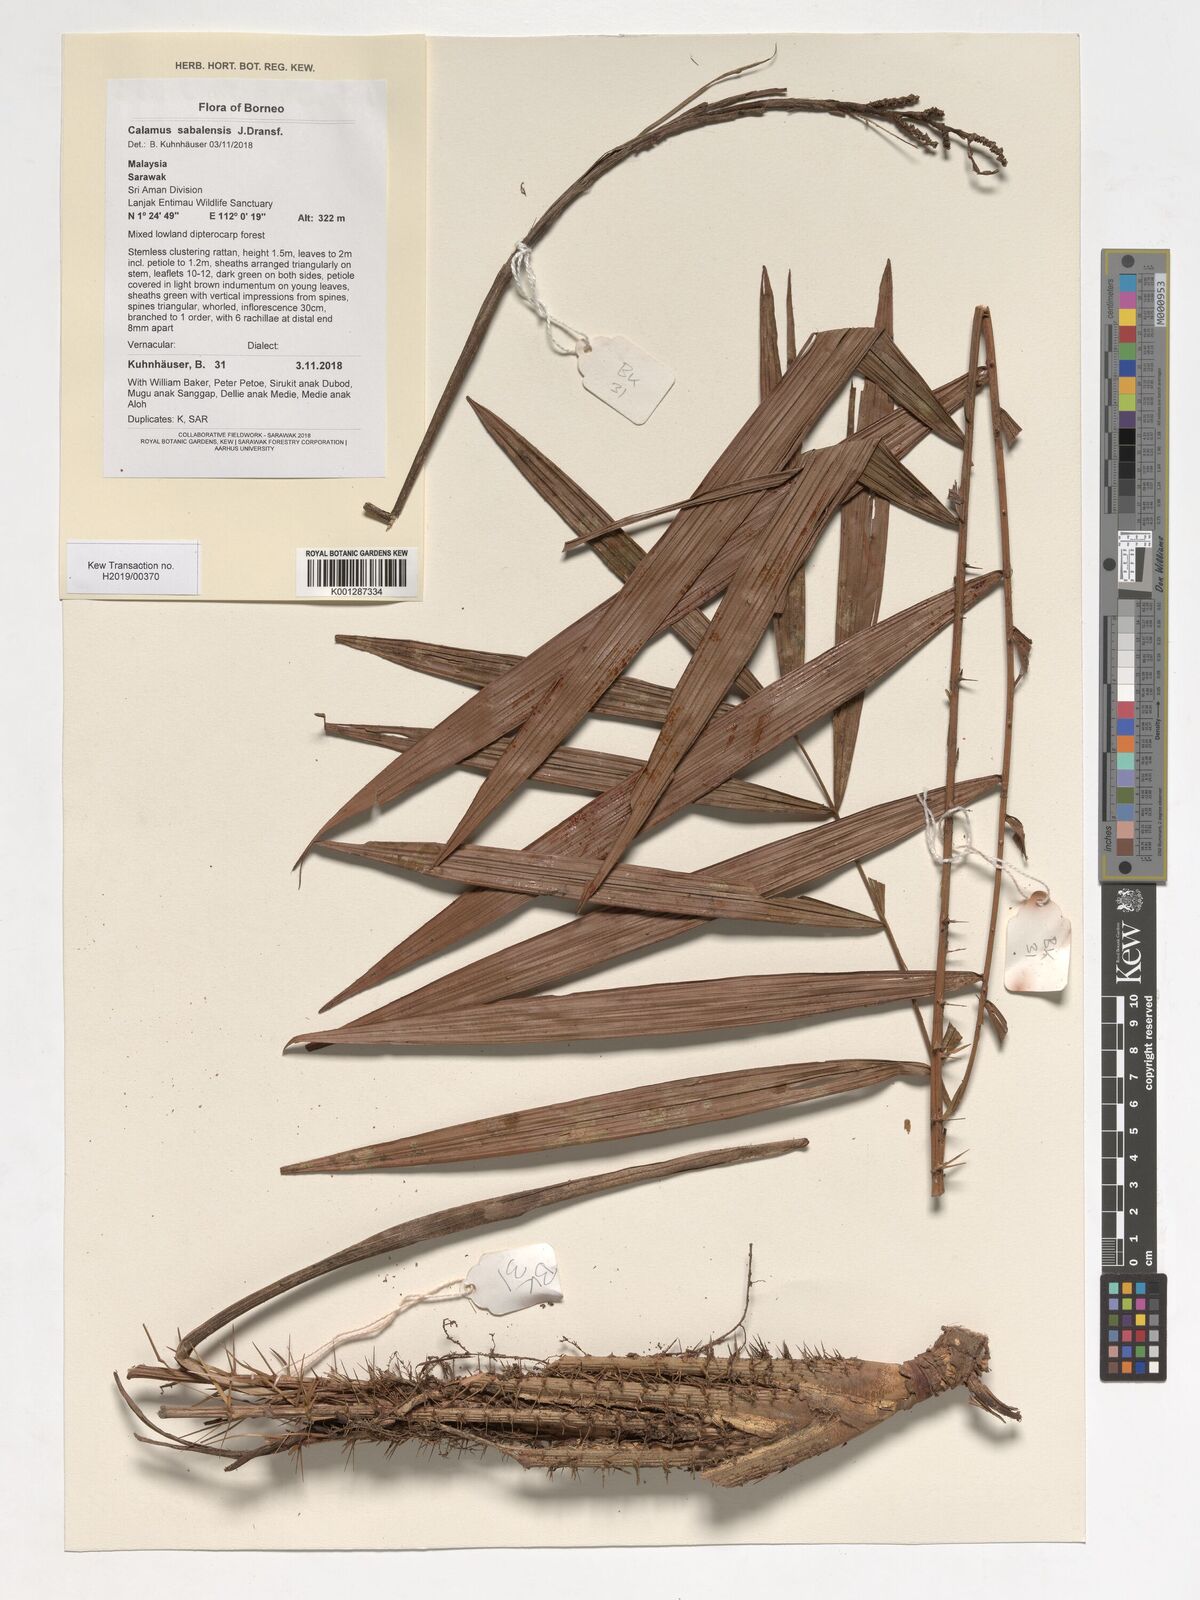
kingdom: Plantae
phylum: Tracheophyta
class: Liliopsida
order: Arecales
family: Arecaceae
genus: Calamus
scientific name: Calamus sabalensis
